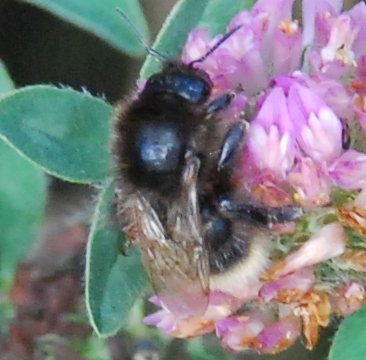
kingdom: Animalia
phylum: Arthropoda
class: Insecta
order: Hymenoptera
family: Apidae
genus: Bombus
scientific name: Bombus soroeensis
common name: Broken-belted humble-bee
